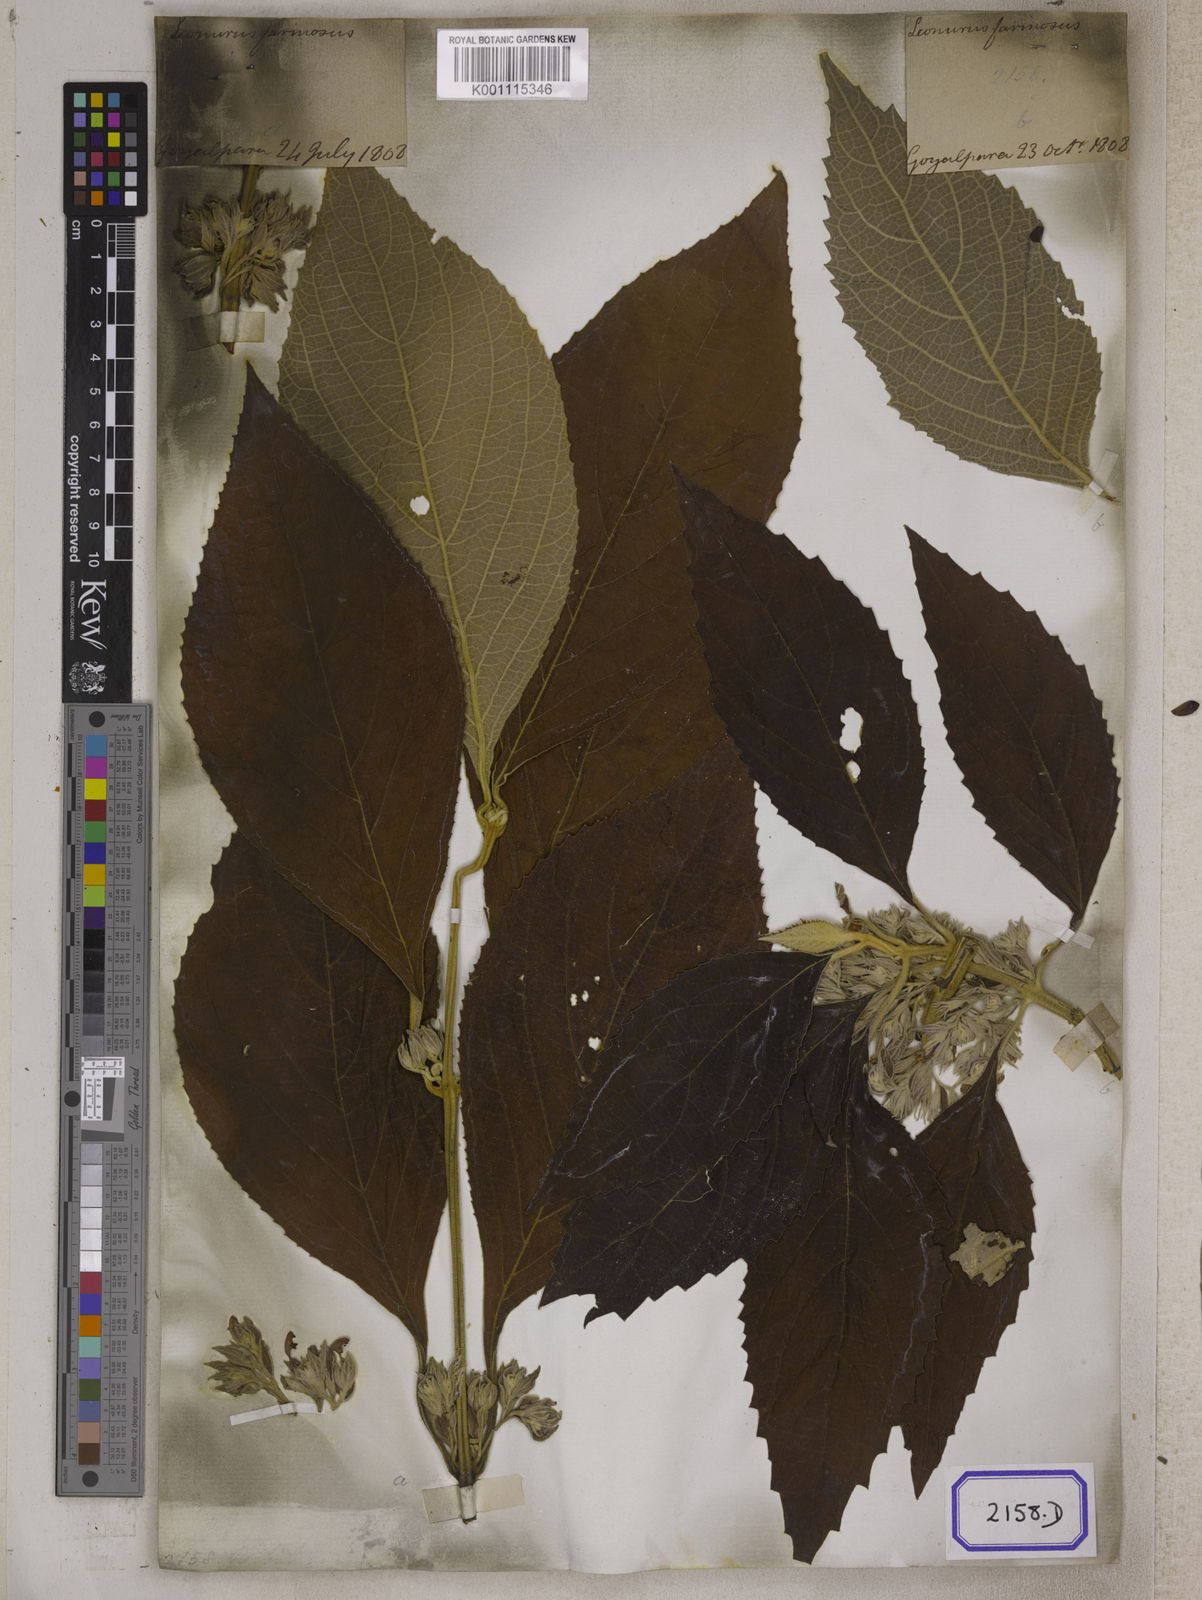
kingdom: Plantae
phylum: Tracheophyta
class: Magnoliopsida
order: Lamiales
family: Lamiaceae
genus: Gomphostemma
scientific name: Gomphostemma
